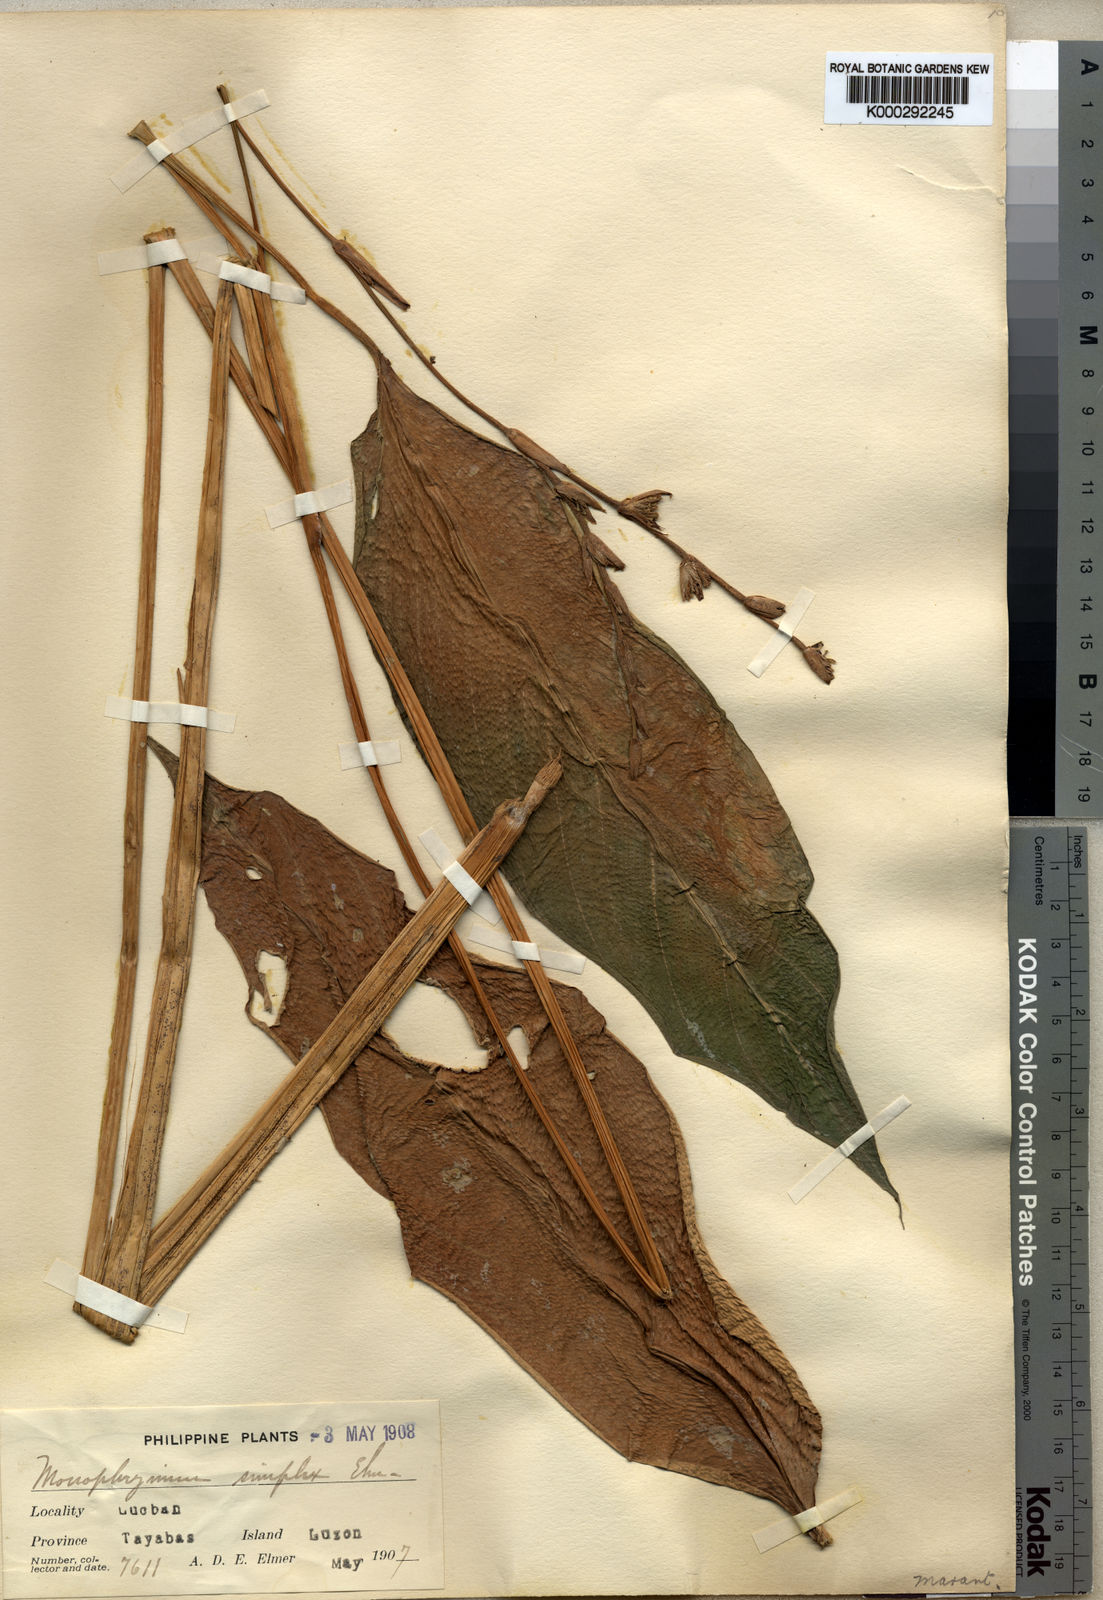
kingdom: Plantae
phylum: Tracheophyta
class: Liliopsida
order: Zingiberales
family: Marantaceae
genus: Phrynium
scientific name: Phrynium
